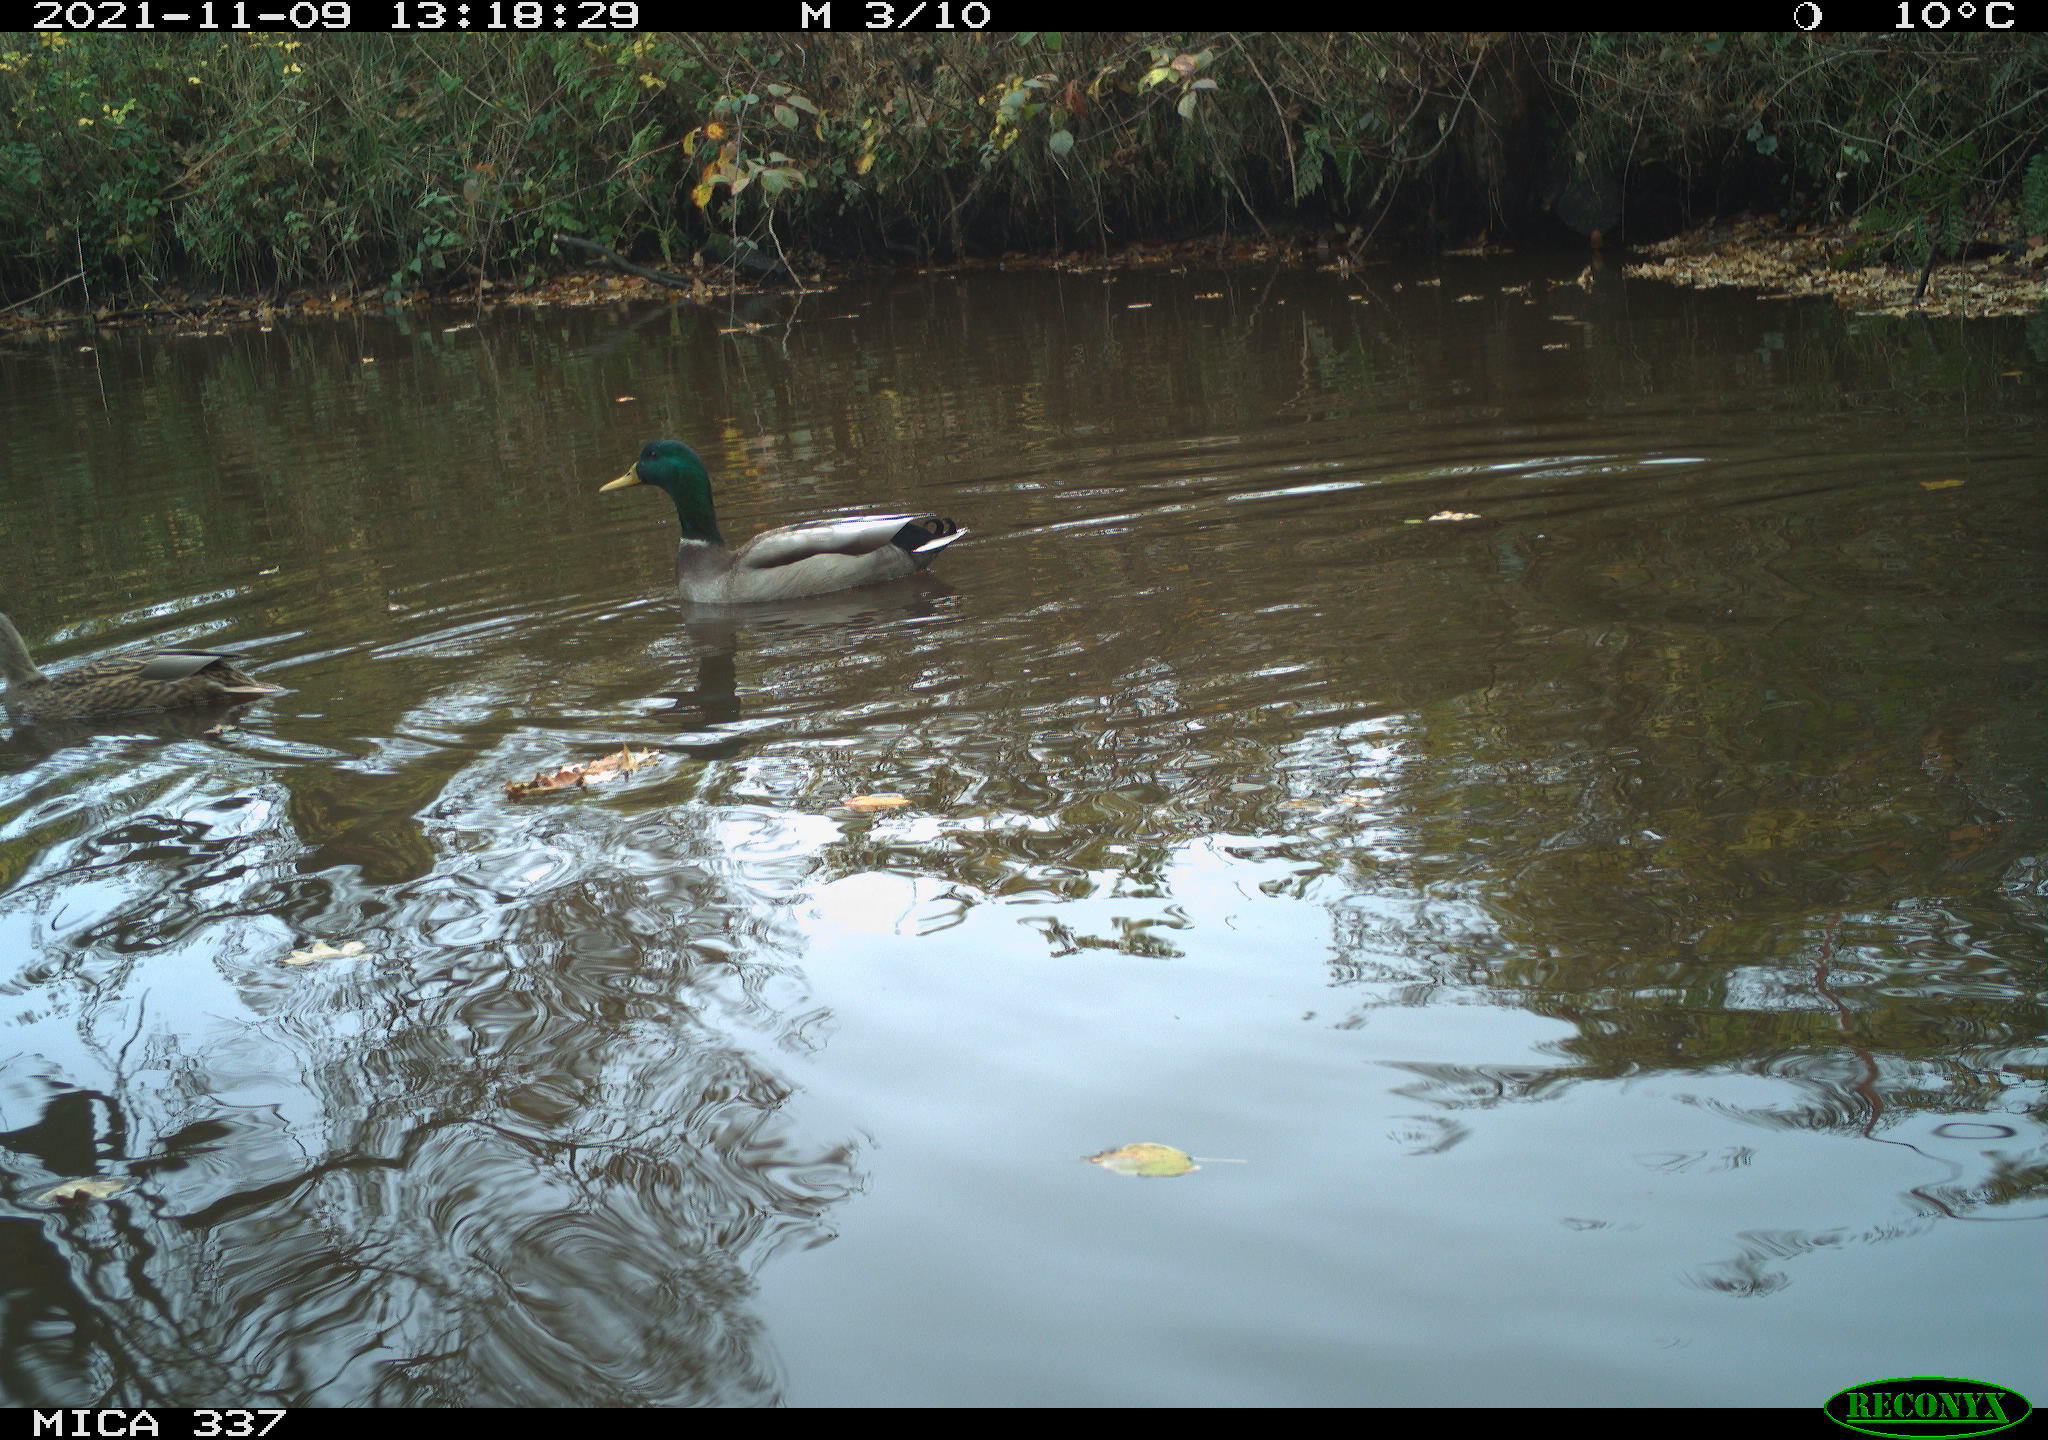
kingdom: Animalia
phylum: Chordata
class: Aves
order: Anseriformes
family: Anatidae
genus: Anas
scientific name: Anas platyrhynchos
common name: Mallard
